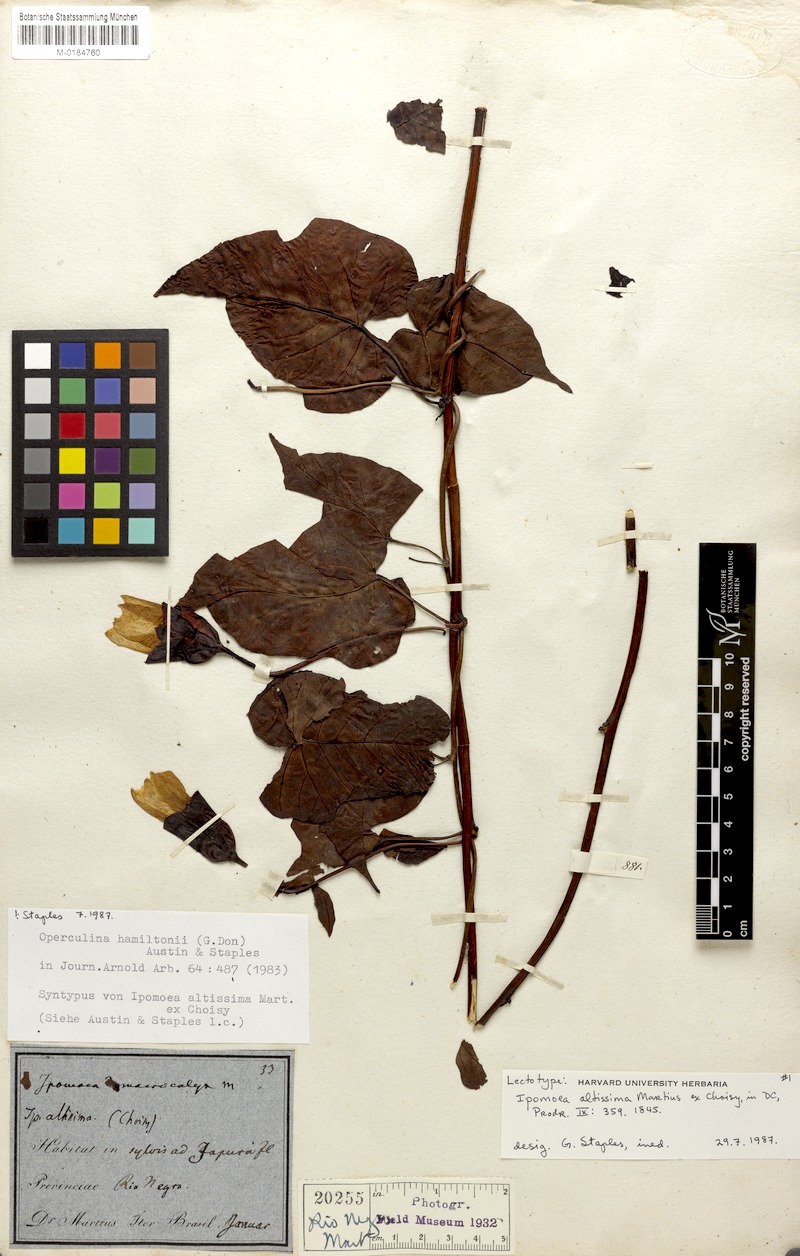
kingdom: Plantae
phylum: Tracheophyta
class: Magnoliopsida
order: Solanales
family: Convolvulaceae
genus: Operculina
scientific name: Operculina hamiltonii
